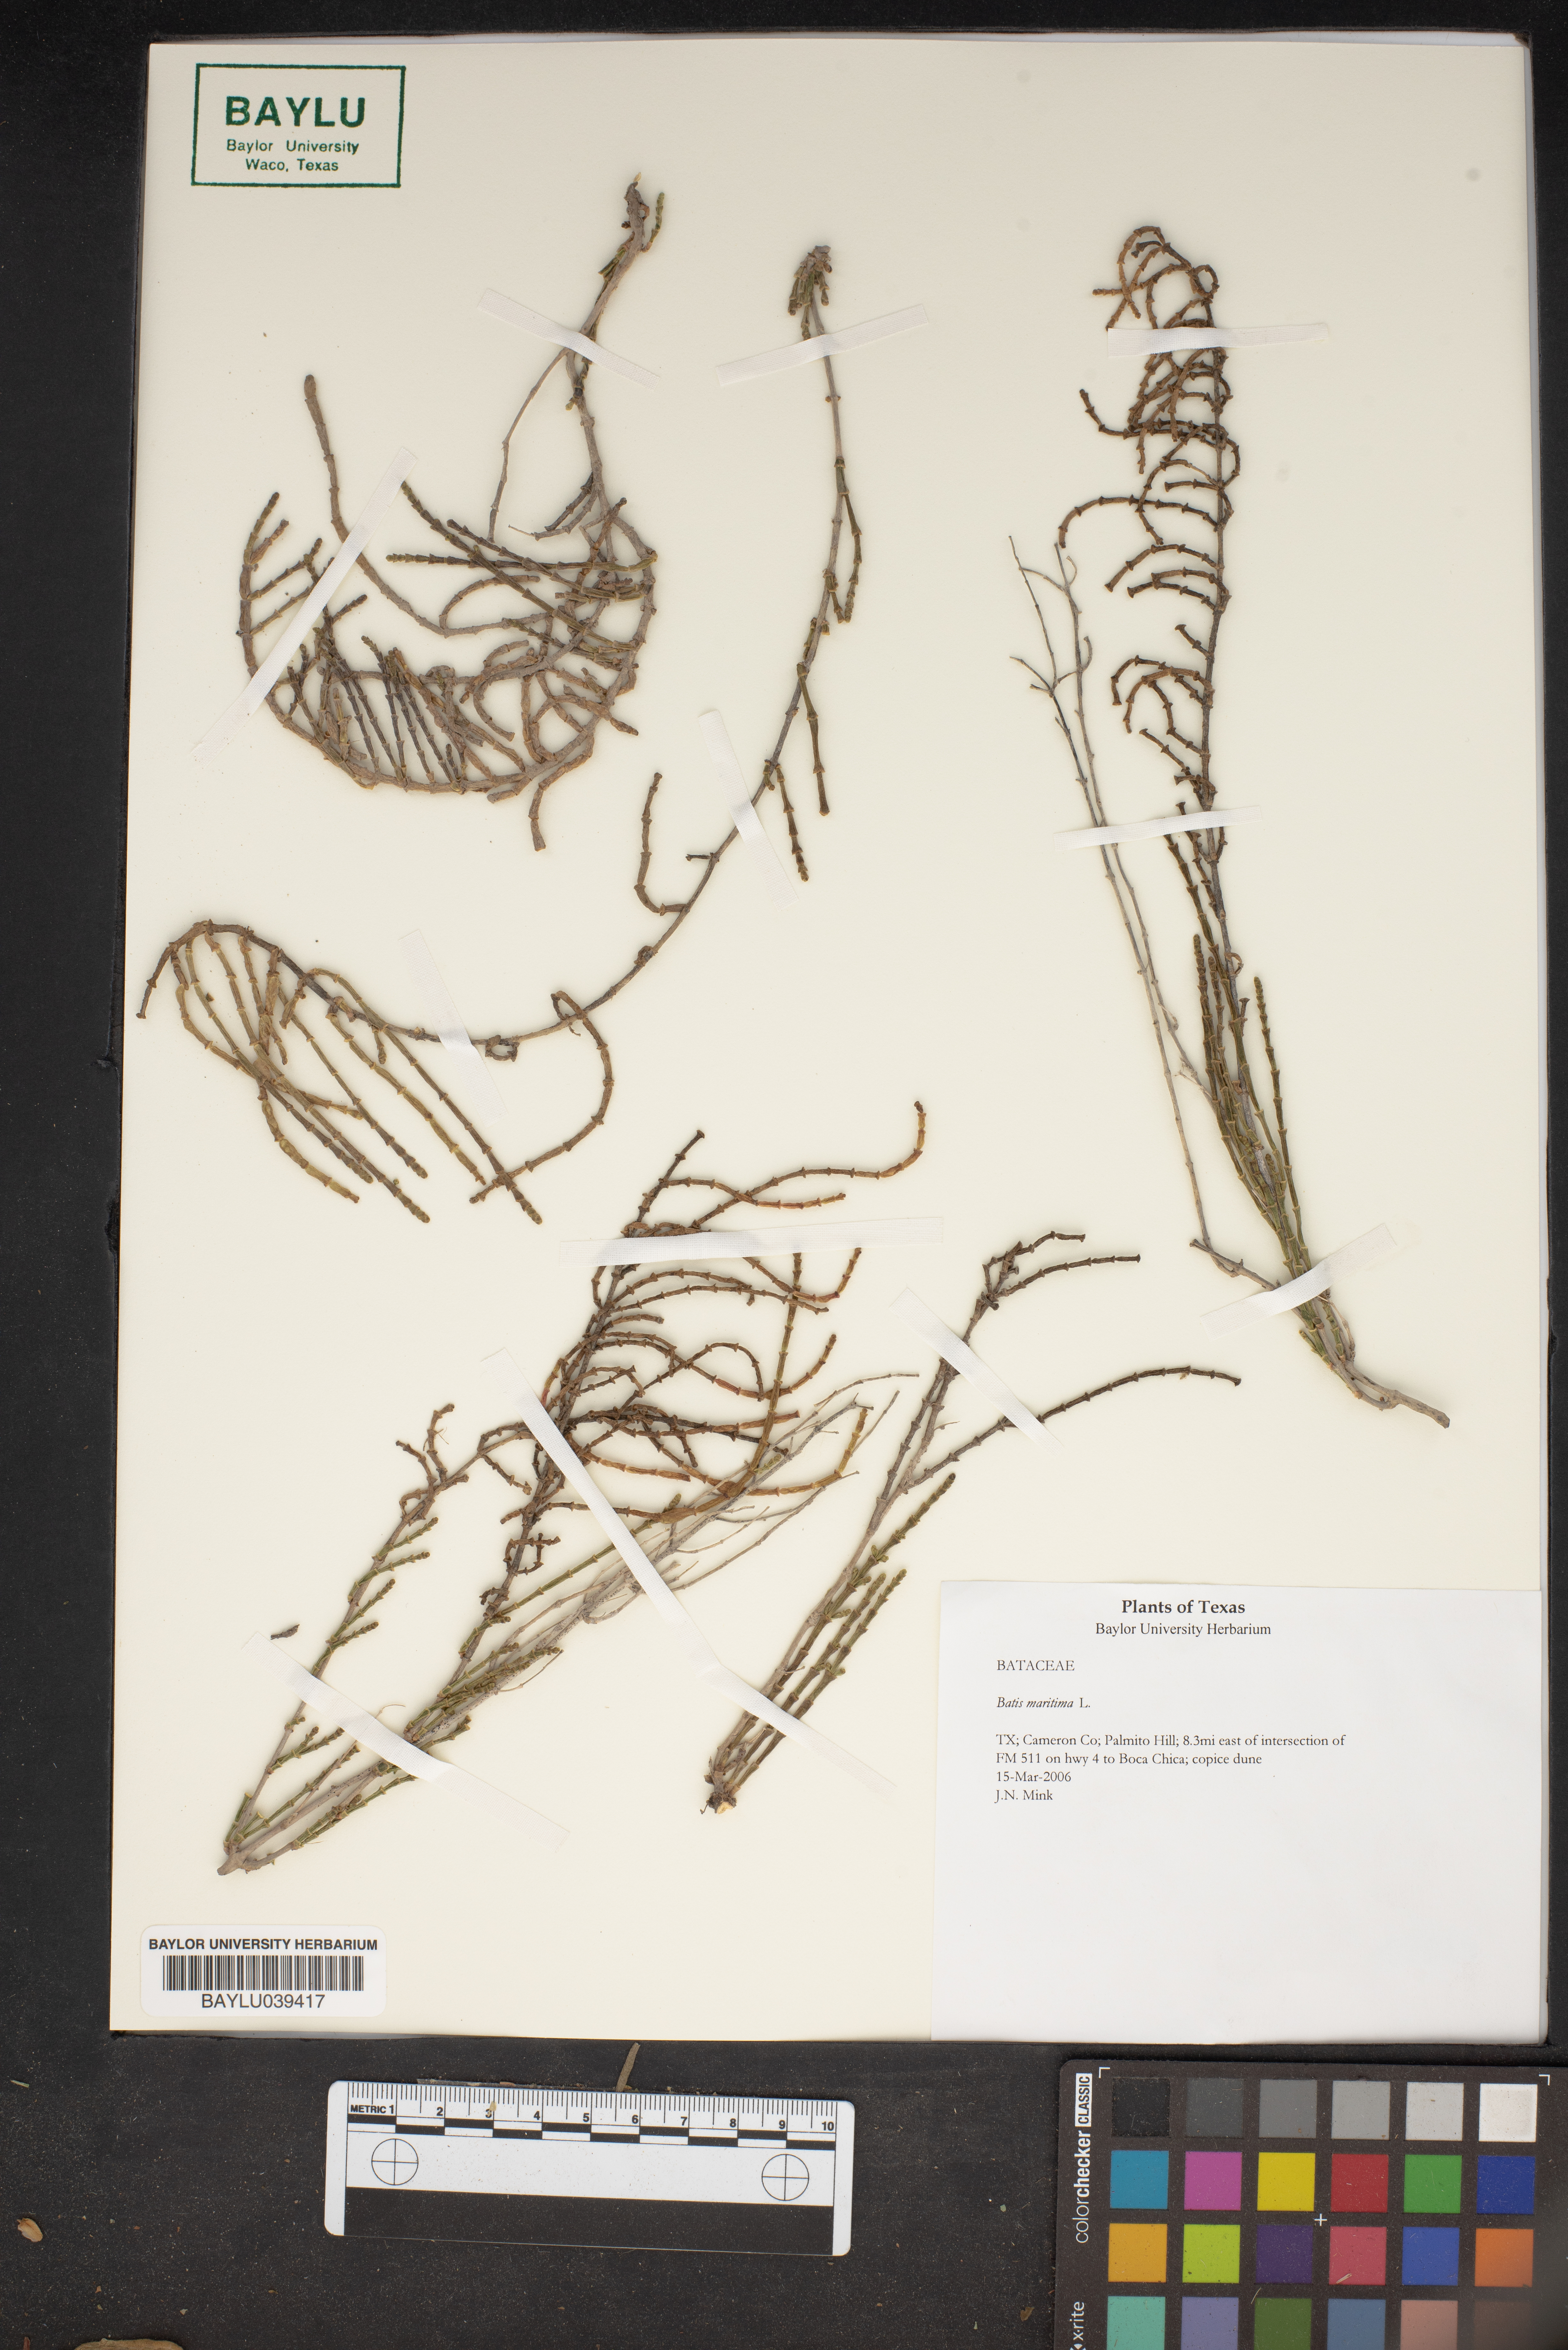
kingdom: Plantae
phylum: Tracheophyta
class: Magnoliopsida
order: Brassicales
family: Bataceae
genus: Batis
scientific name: Batis maritima
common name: Turtleweed
